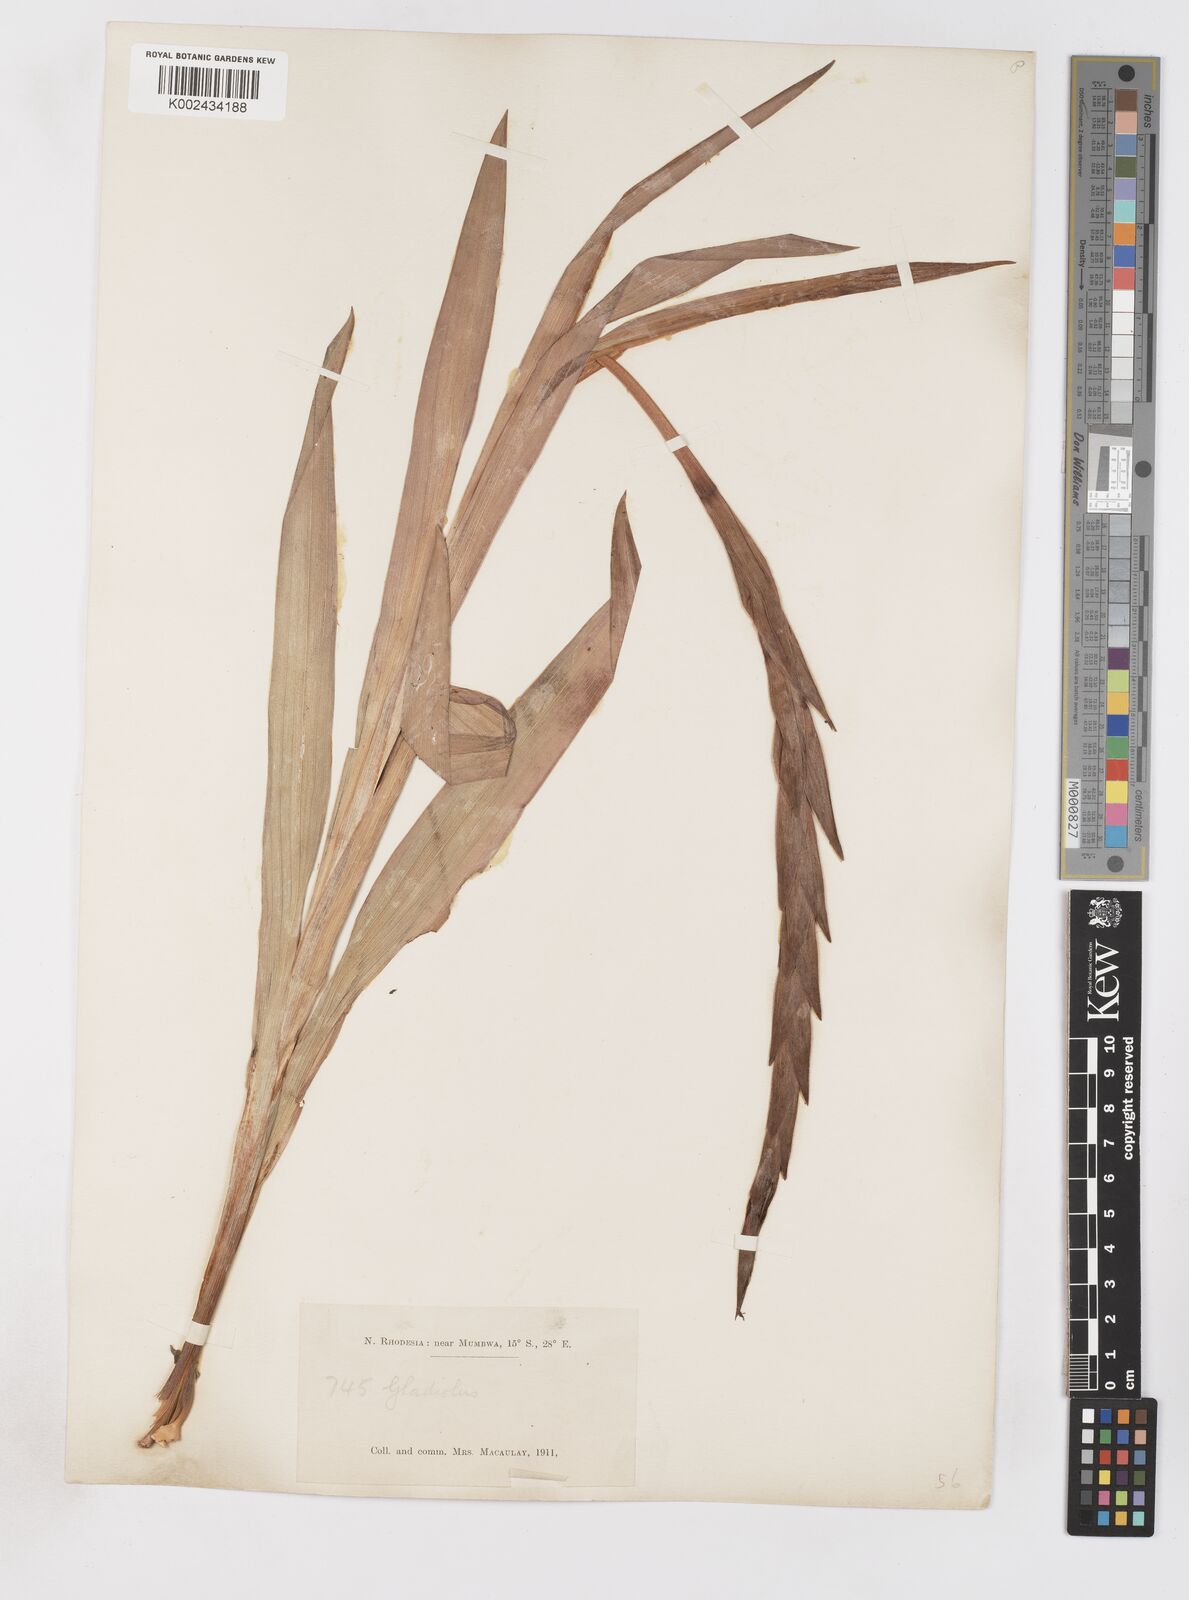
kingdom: Plantae
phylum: Tracheophyta
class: Liliopsida
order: Asparagales
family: Iridaceae
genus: Gladiolus
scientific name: Gladiolus gregarius
